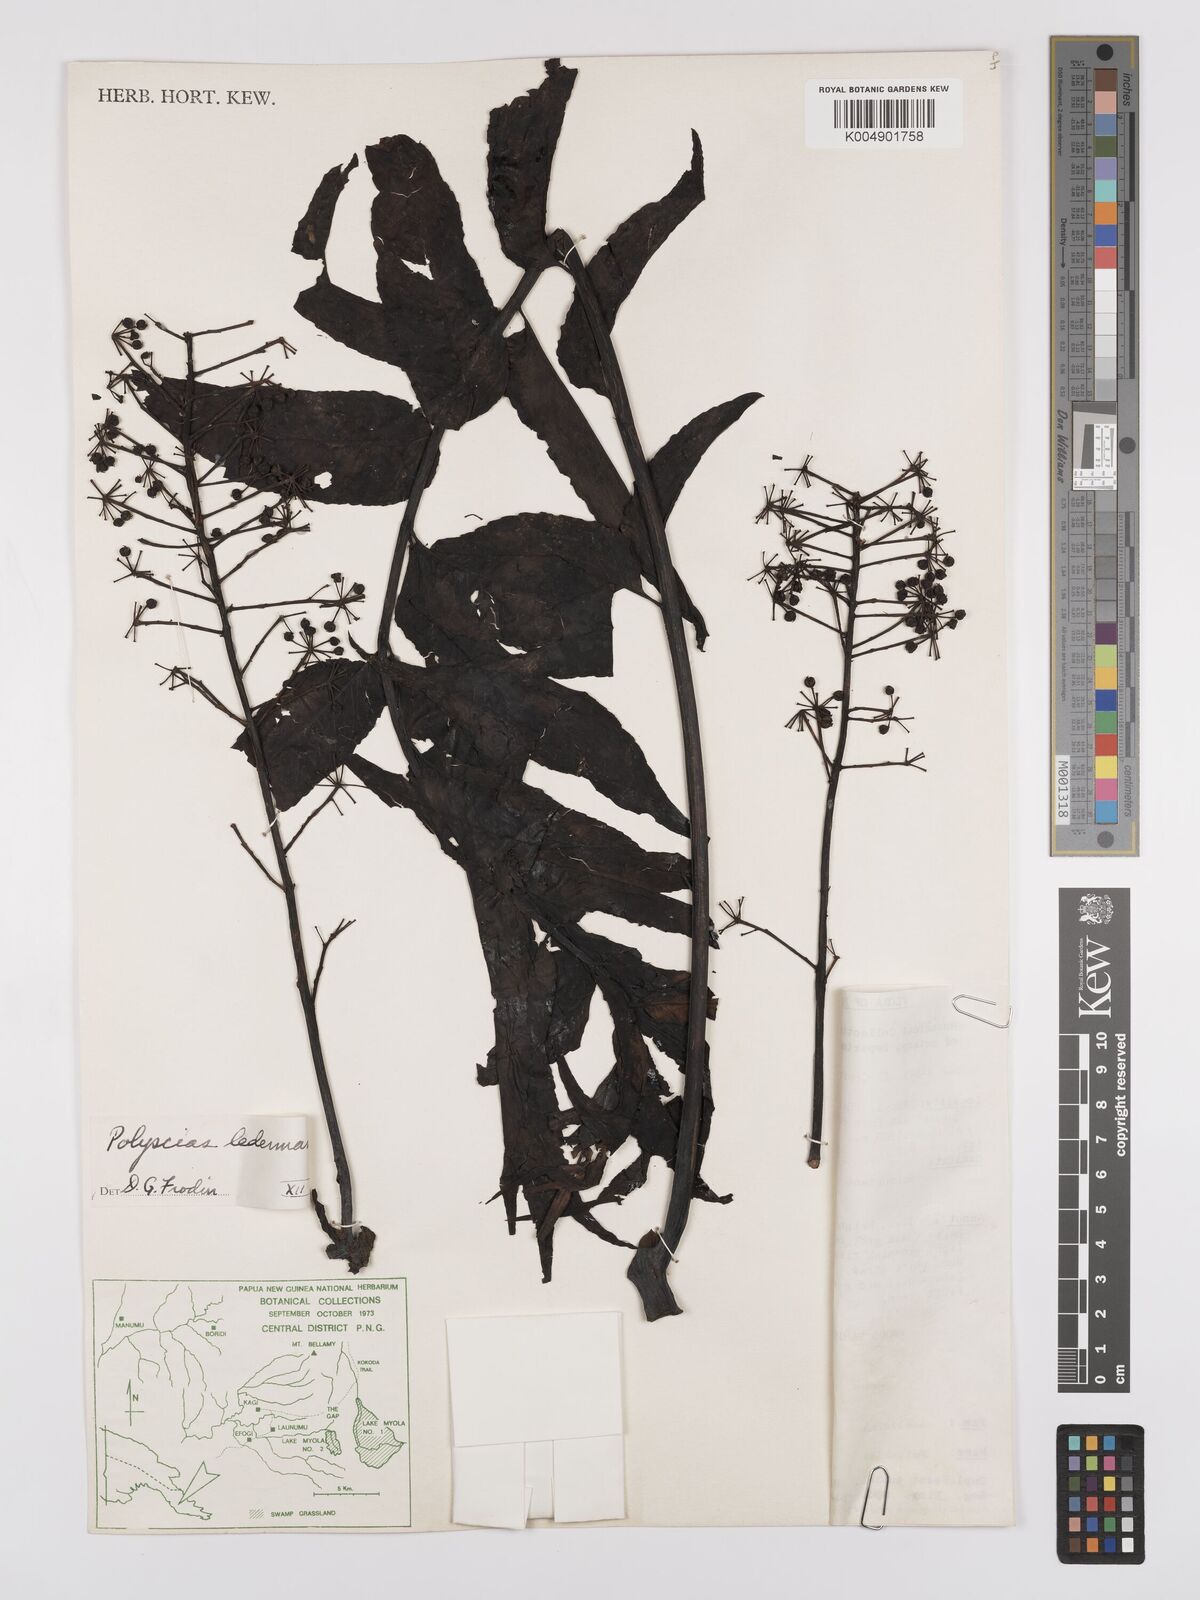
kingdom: Plantae
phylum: Tracheophyta
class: Magnoliopsida
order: Apiales
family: Araliaceae
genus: Polyscias
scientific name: Polyscias ledermannii
